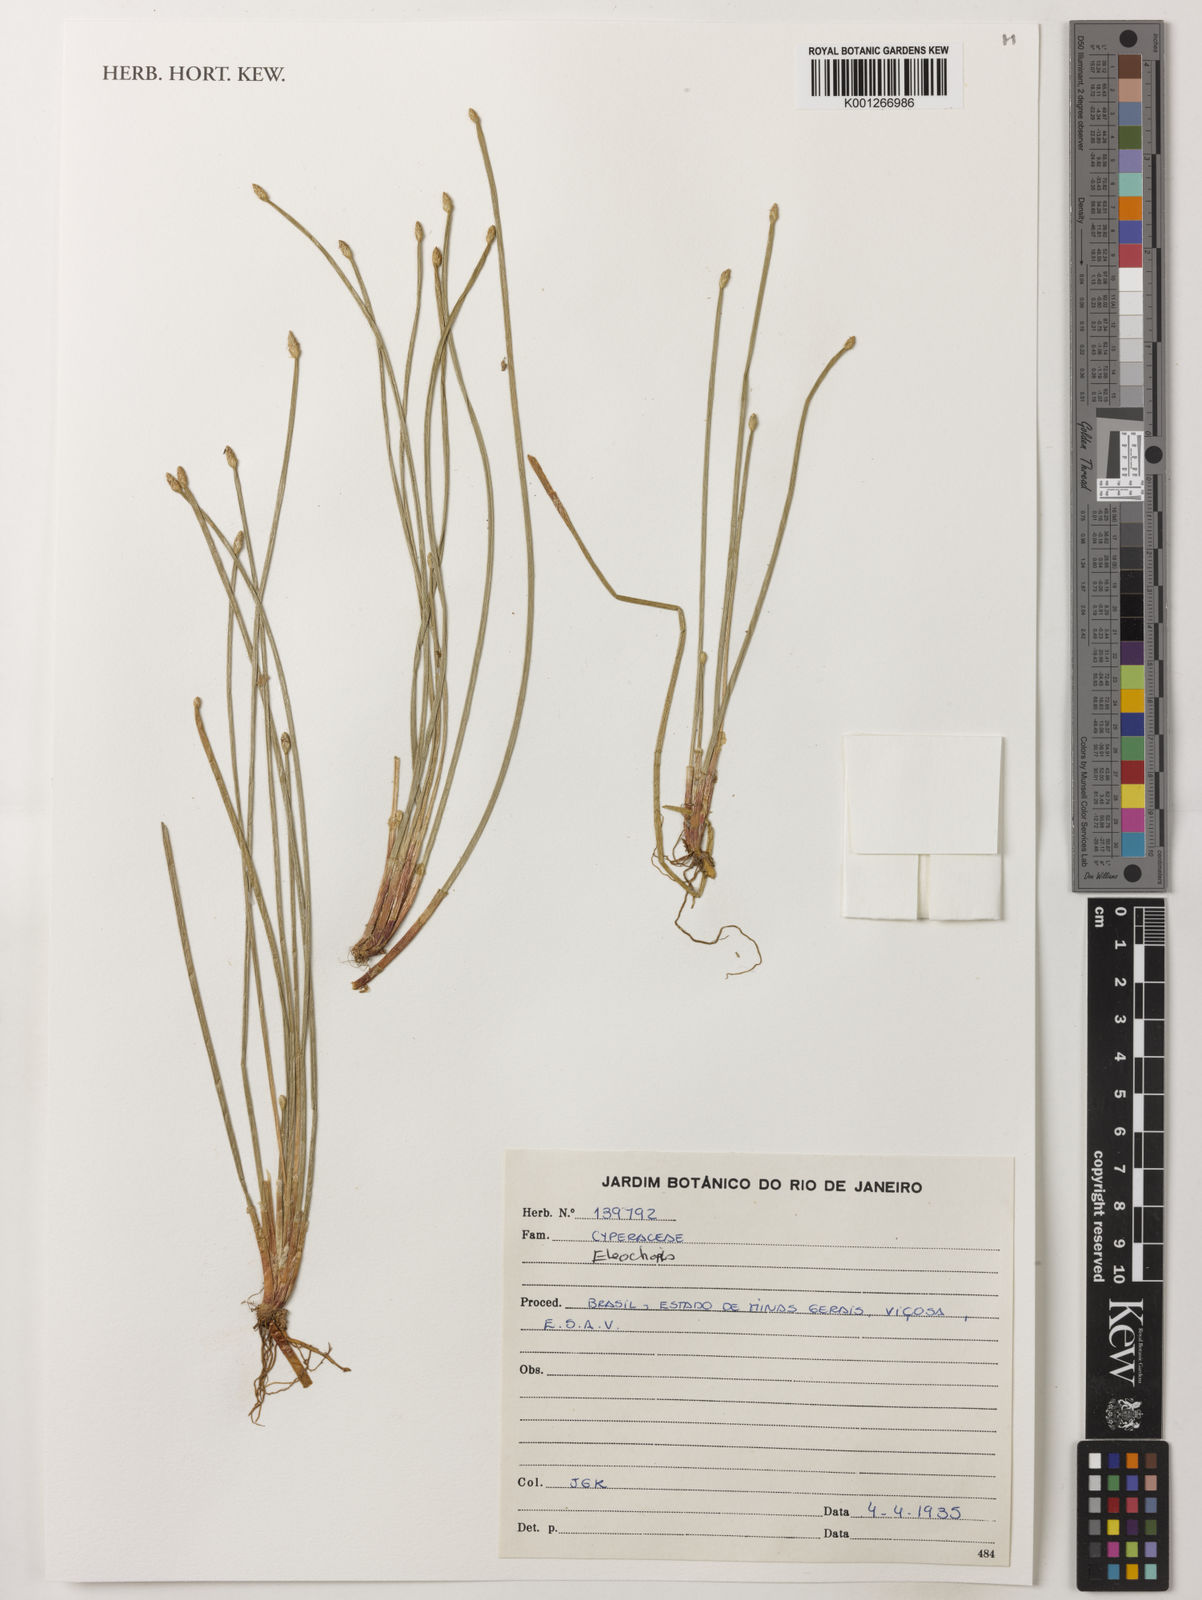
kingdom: Plantae
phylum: Tracheophyta
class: Liliopsida
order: Poales
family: Cyperaceae
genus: Eleocharis
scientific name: Eleocharis
